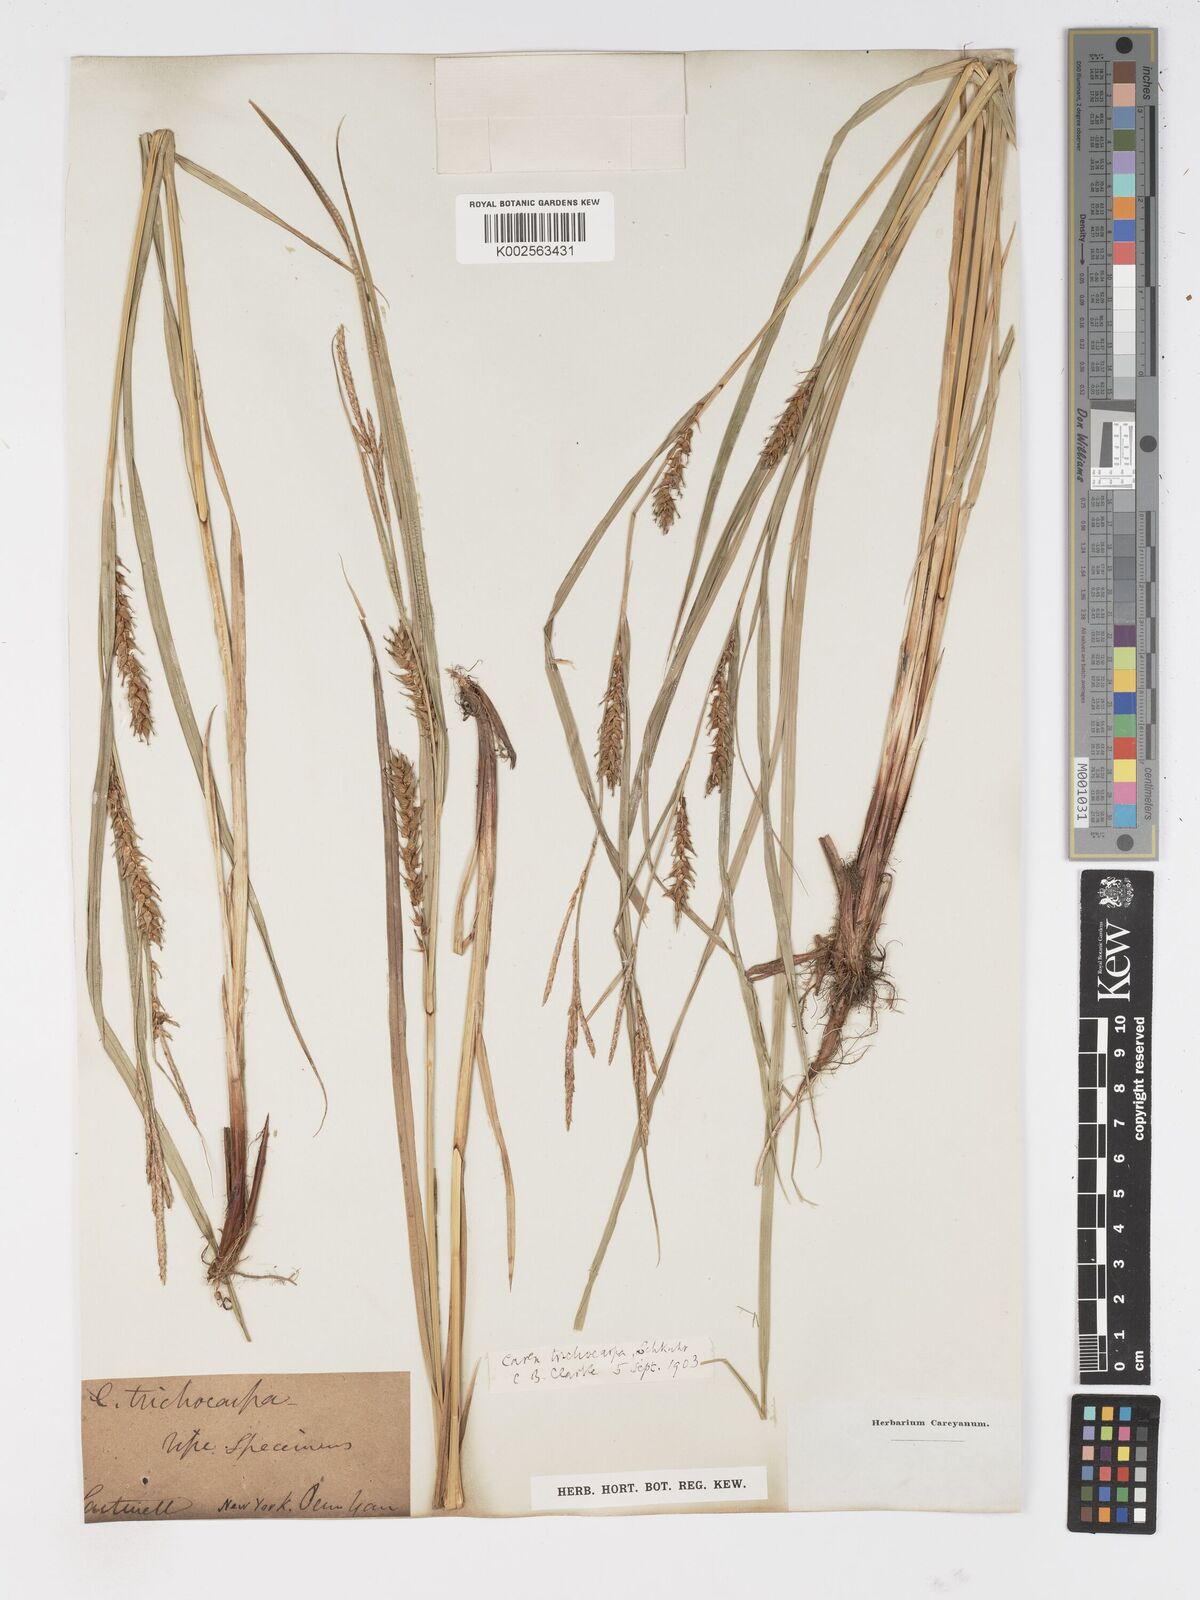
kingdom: Plantae
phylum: Tracheophyta
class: Liliopsida
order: Poales
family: Cyperaceae
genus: Carex
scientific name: Carex trichocarpa
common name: Hairy-fruited lake sedge
